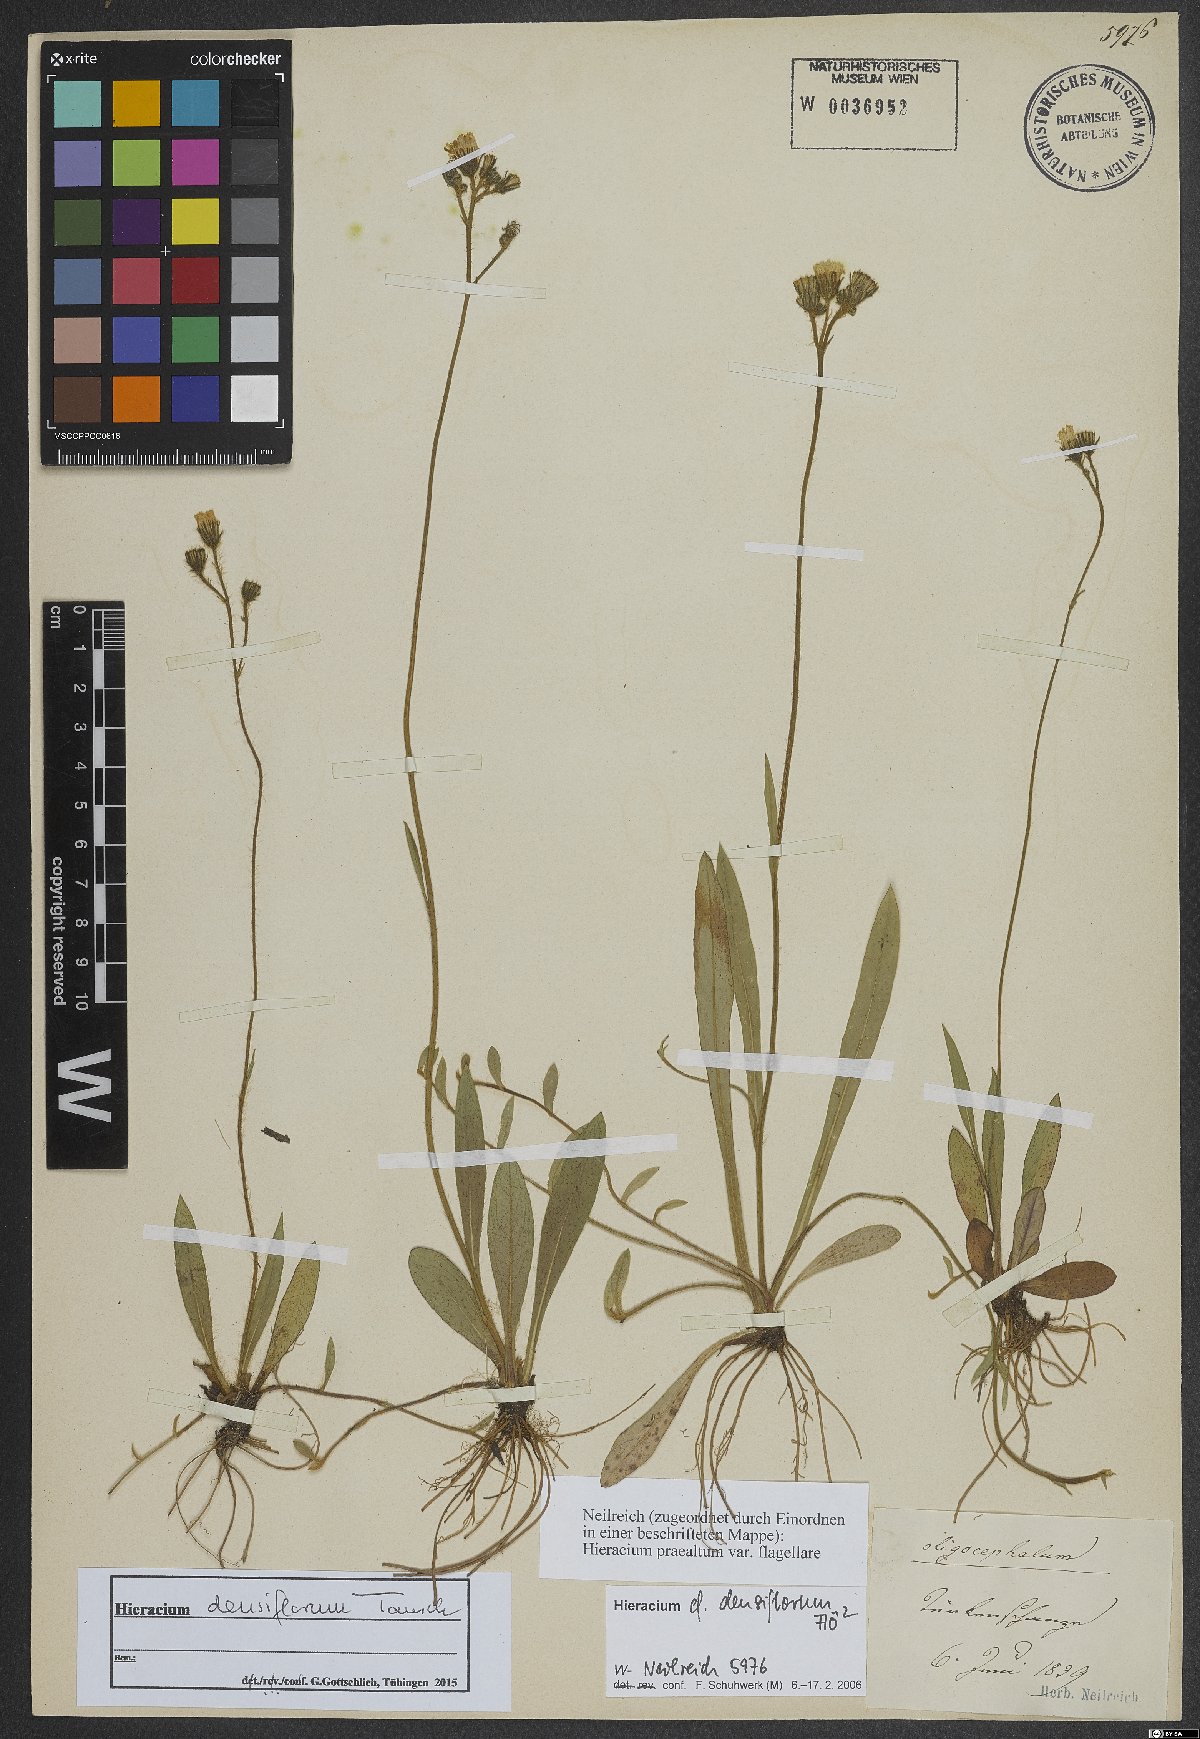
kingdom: Plantae
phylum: Tracheophyta
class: Magnoliopsida
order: Asterales
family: Asteraceae
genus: Pilosella
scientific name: Pilosella densiflora
